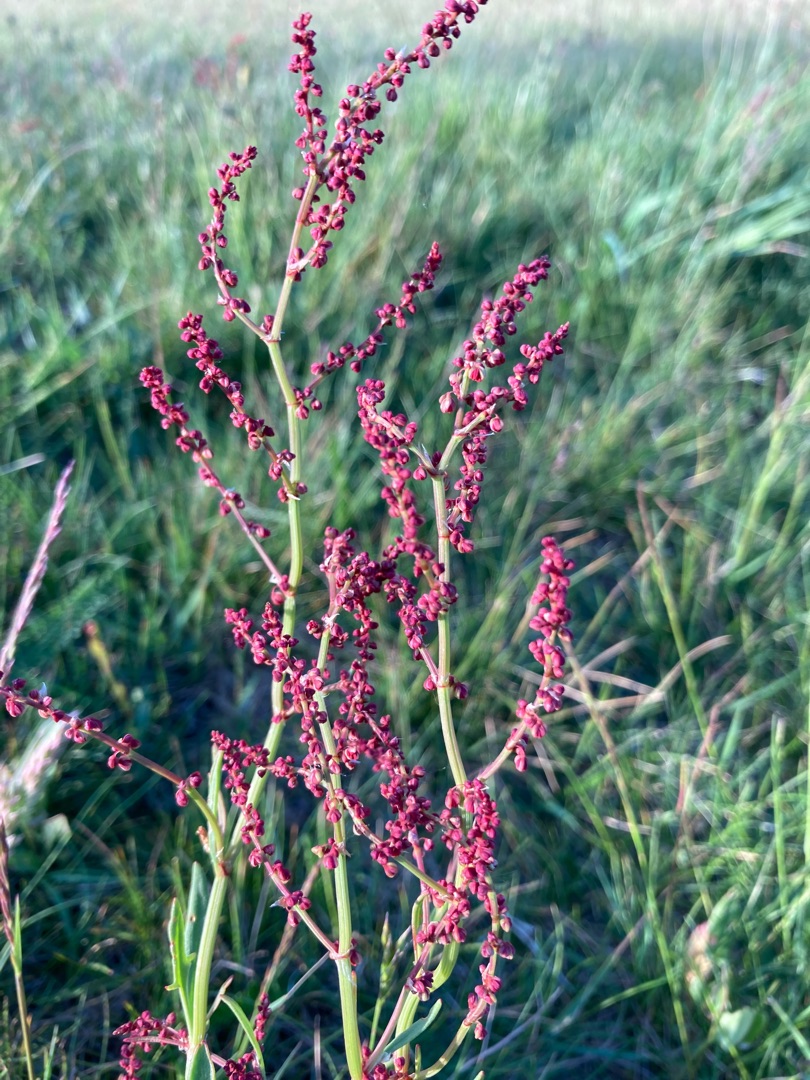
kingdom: Plantae
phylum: Tracheophyta
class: Magnoliopsida
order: Caryophyllales
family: Polygonaceae
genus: Rumex
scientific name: Rumex acetosella
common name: Rødknæ
